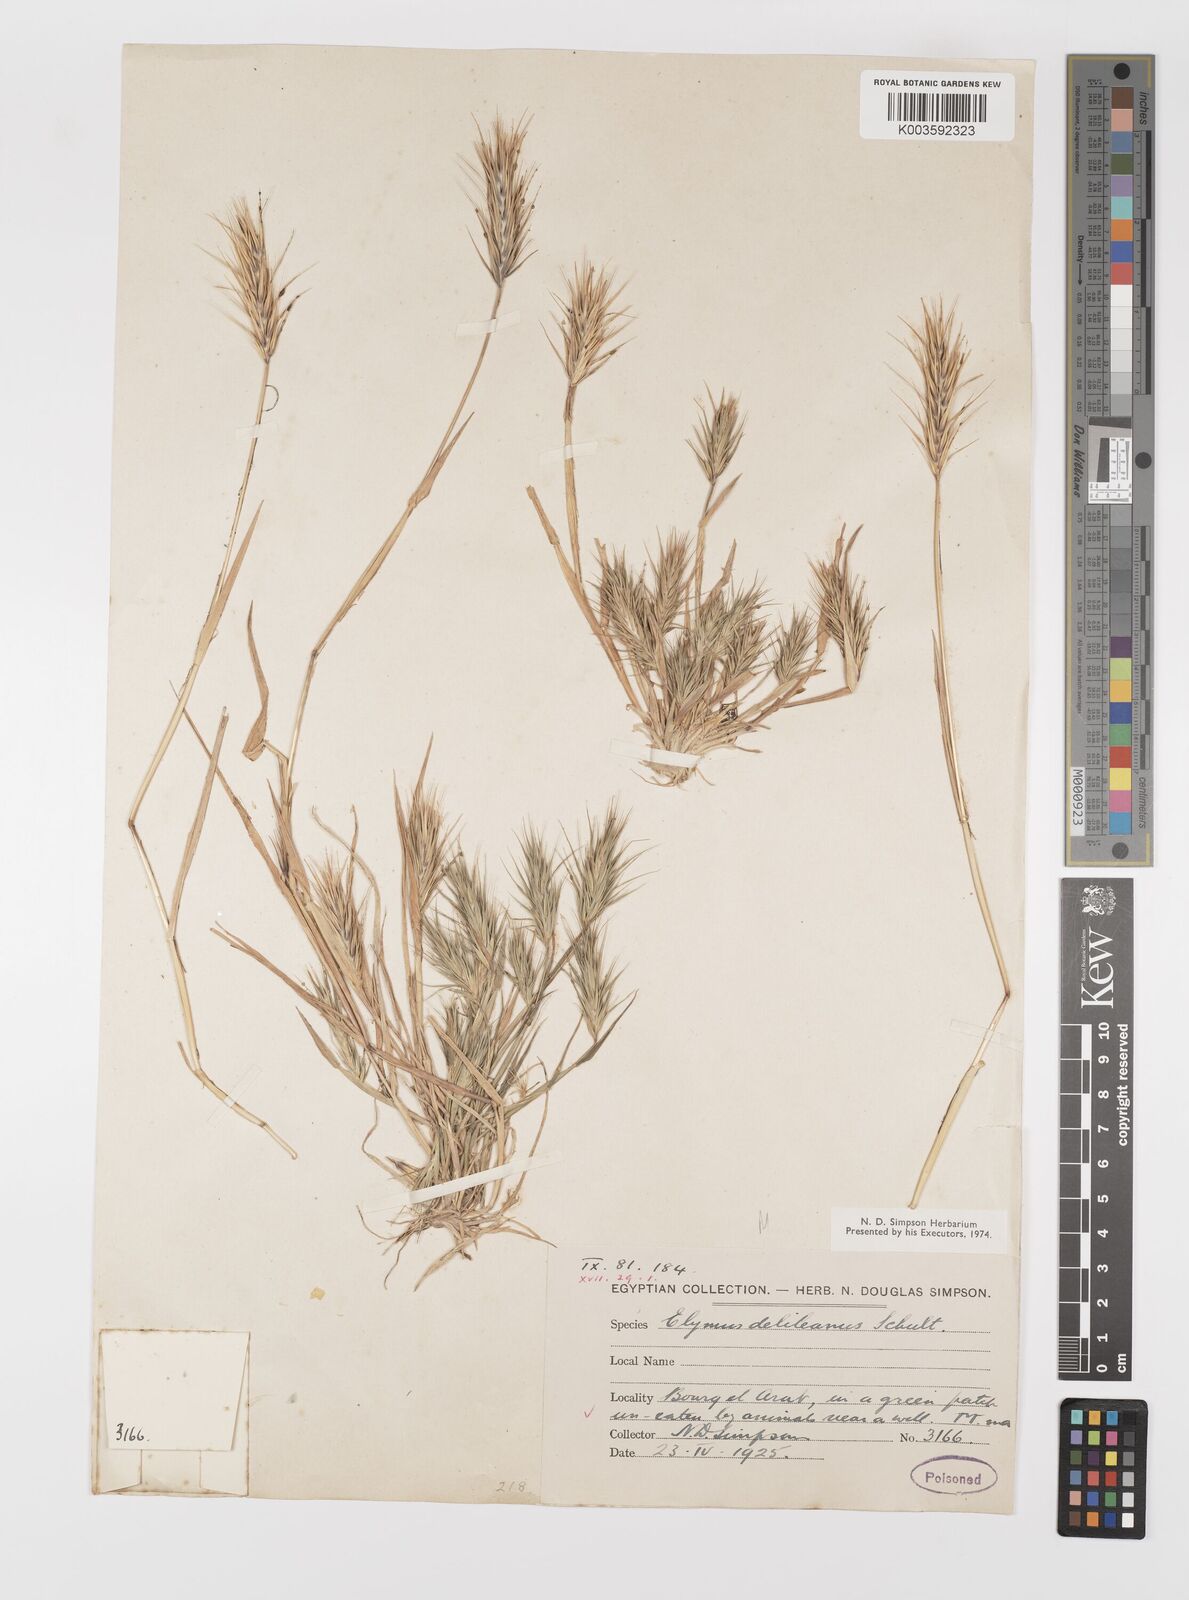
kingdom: Plantae
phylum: Tracheophyta
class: Liliopsida
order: Poales
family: Poaceae
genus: Crithopsis
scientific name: Crithopsis delileana
